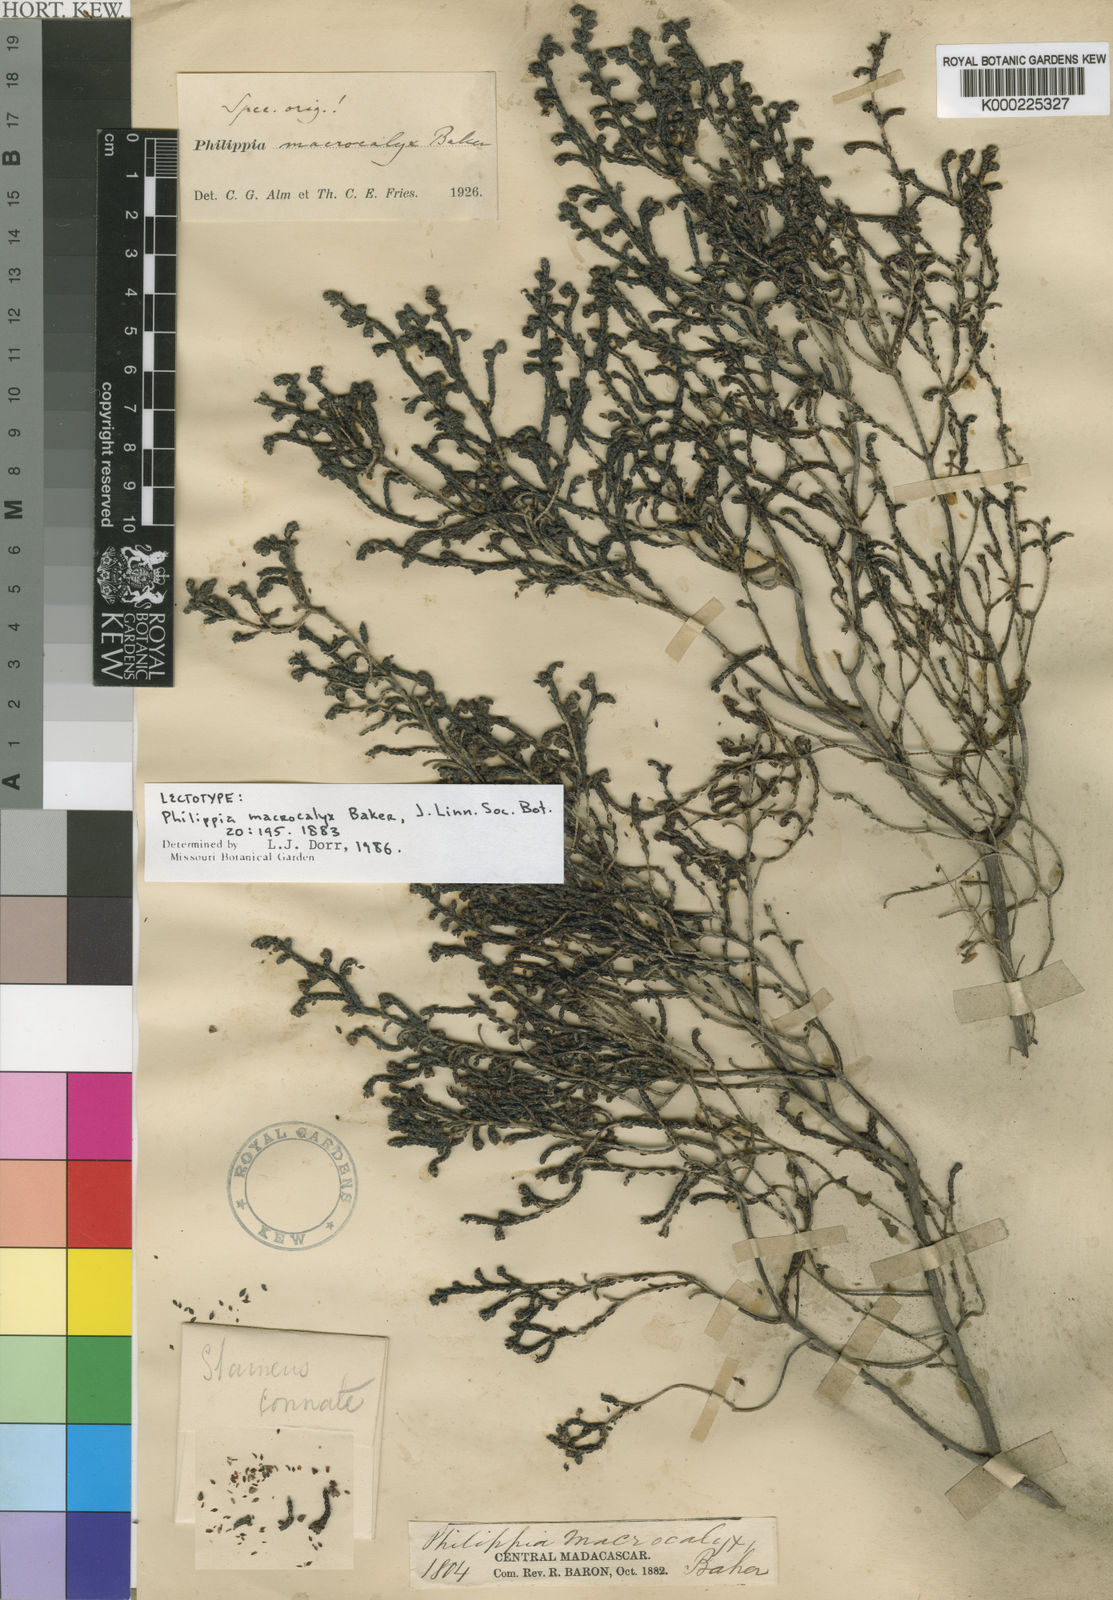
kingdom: Plantae
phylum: Tracheophyta
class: Magnoliopsida
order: Ericales
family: Ericaceae
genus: Erica
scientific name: Erica macrocalyx
